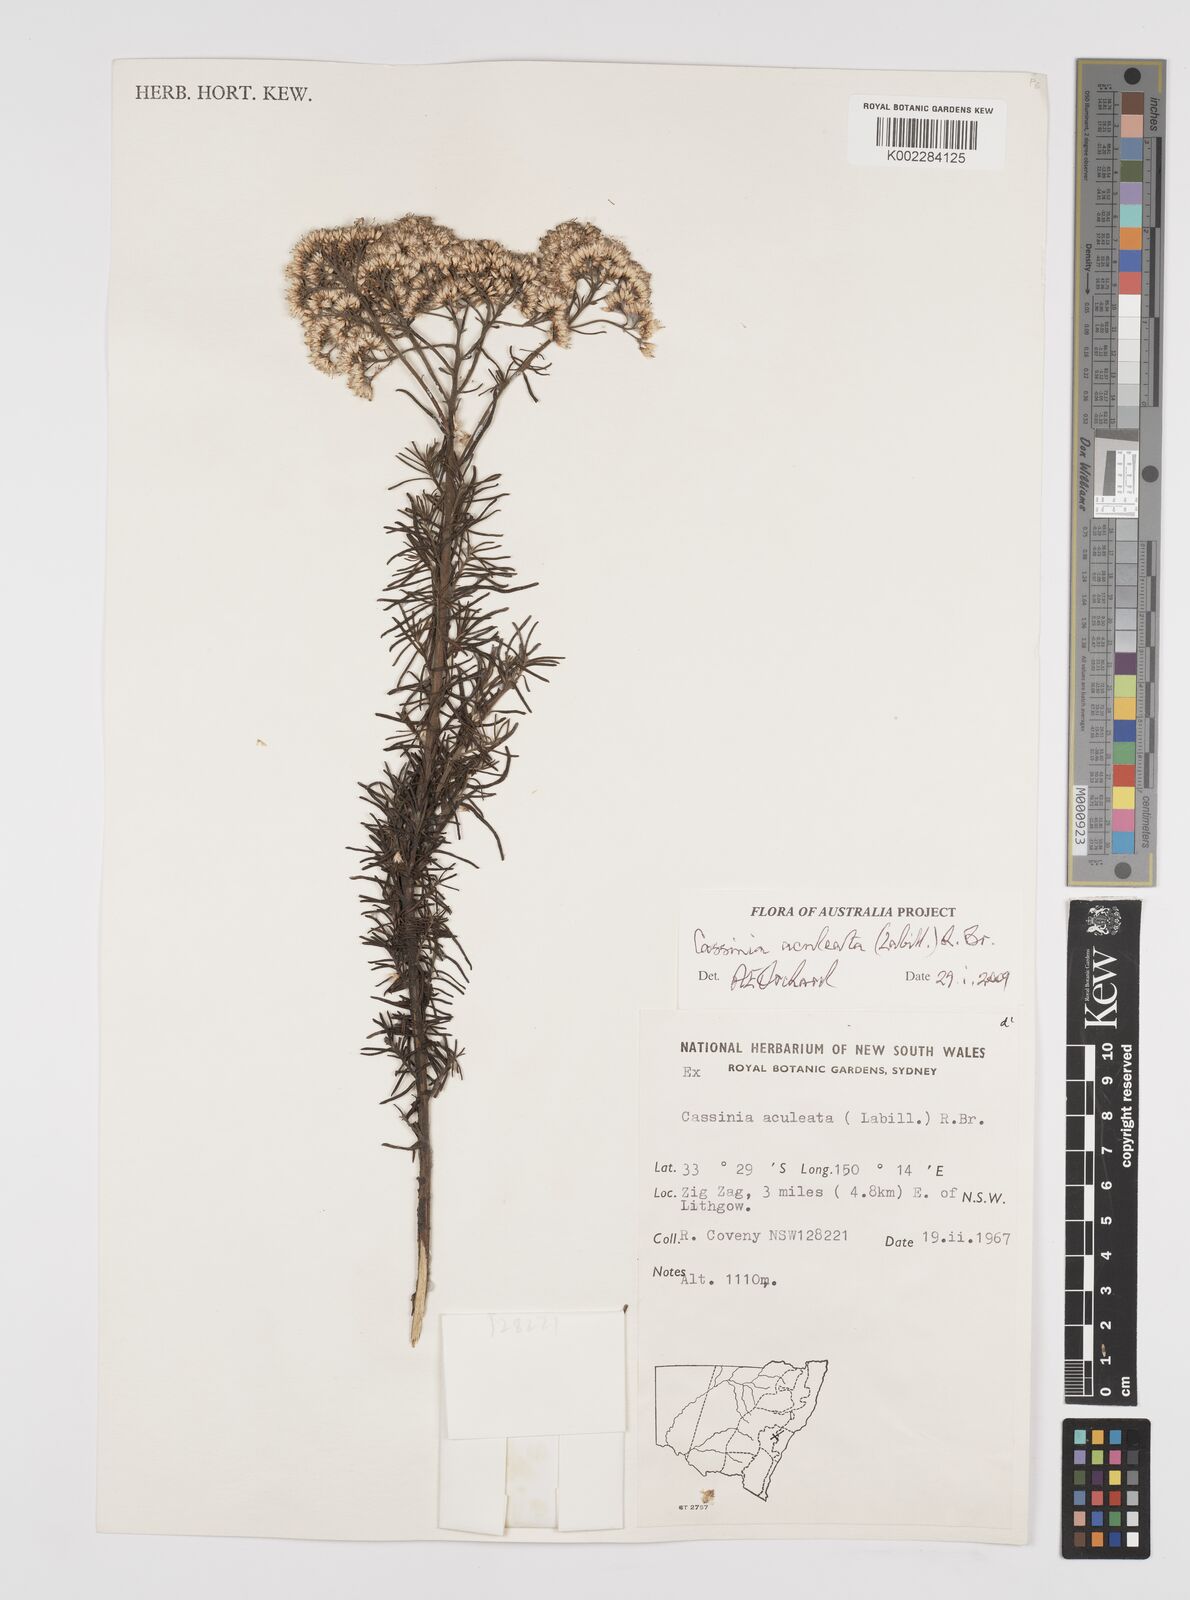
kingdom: Plantae
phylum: Tracheophyta
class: Magnoliopsida
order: Asterales
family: Asteraceae
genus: Cassinia
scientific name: Cassinia aculeata
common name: Australian tauhinu
